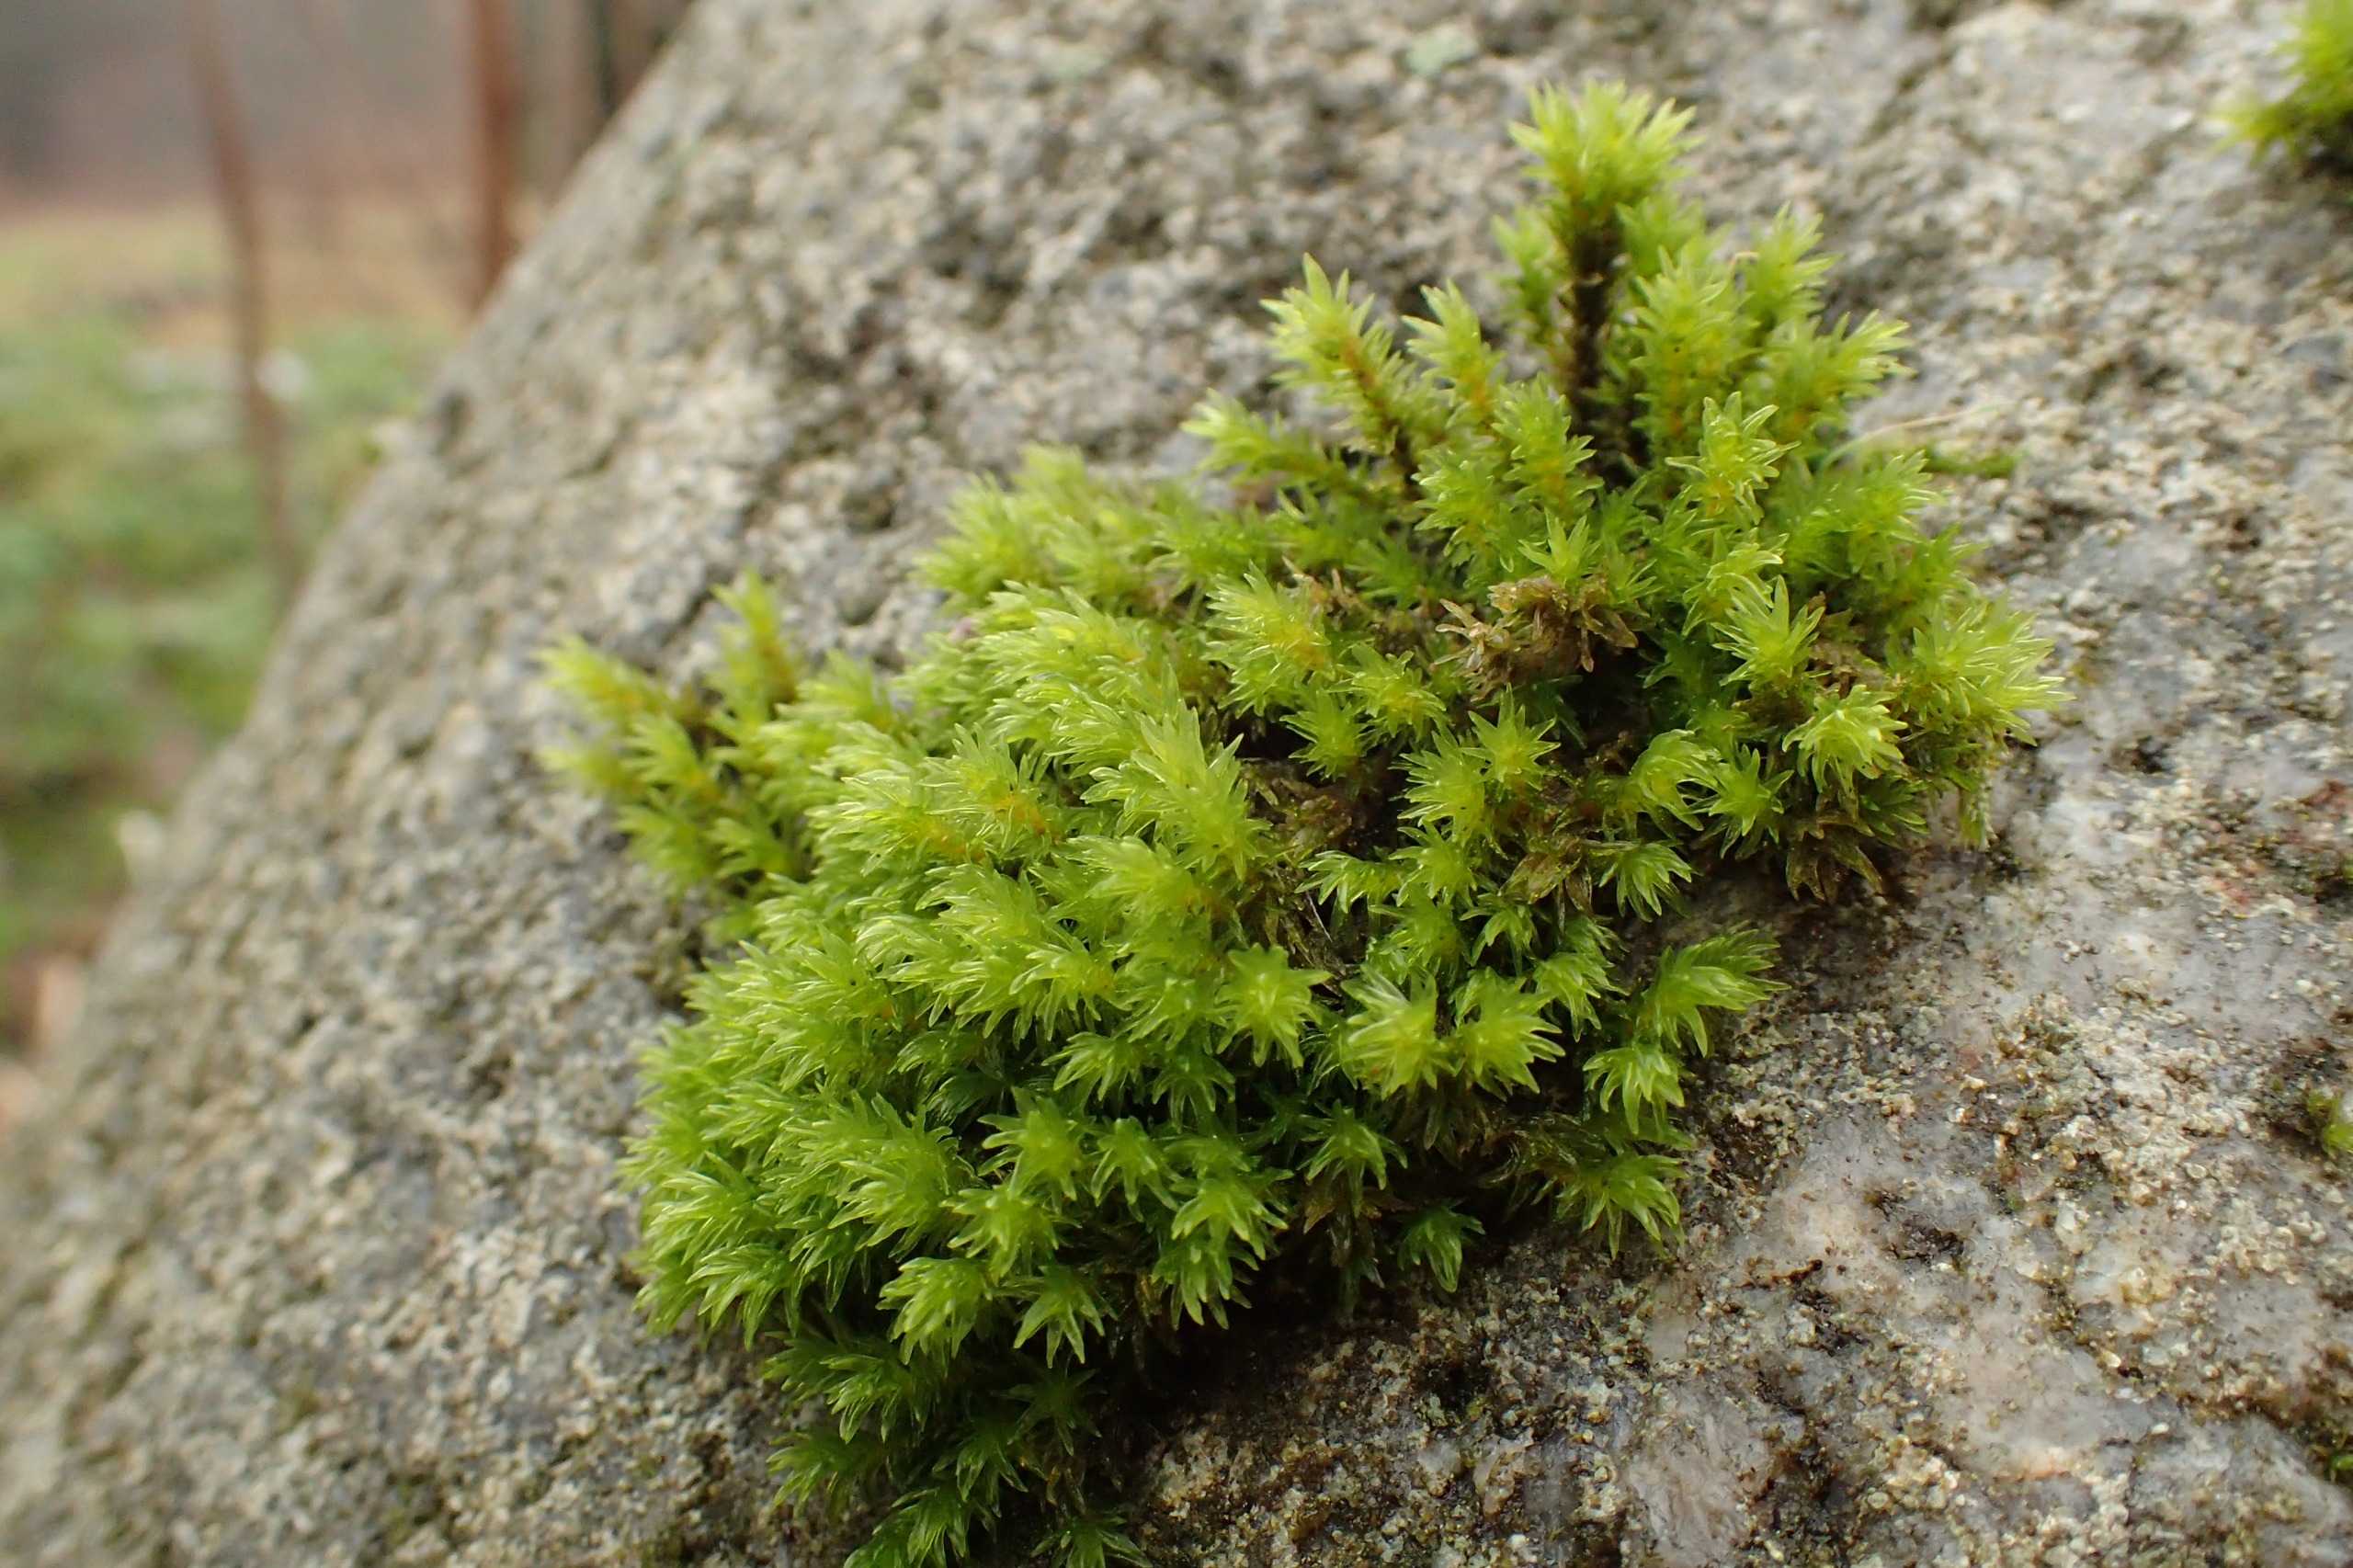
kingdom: Plantae
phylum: Bryophyta
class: Bryopsida
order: Grimmiales
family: Grimmiaceae
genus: Codriophorus
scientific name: Codriophorus acicularis
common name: Butbladet børstemos
